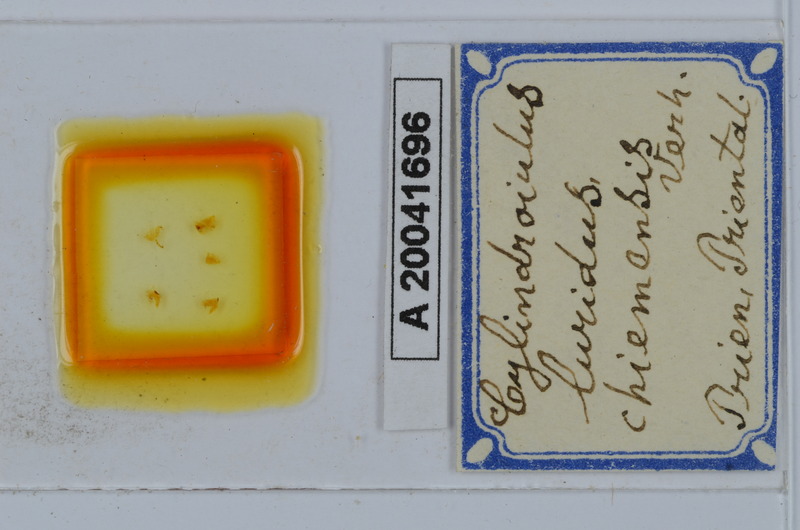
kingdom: Animalia
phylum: Arthropoda
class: Diplopoda
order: Julida
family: Julidae
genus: Cylindroiulus
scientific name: Cylindroiulus luridus
